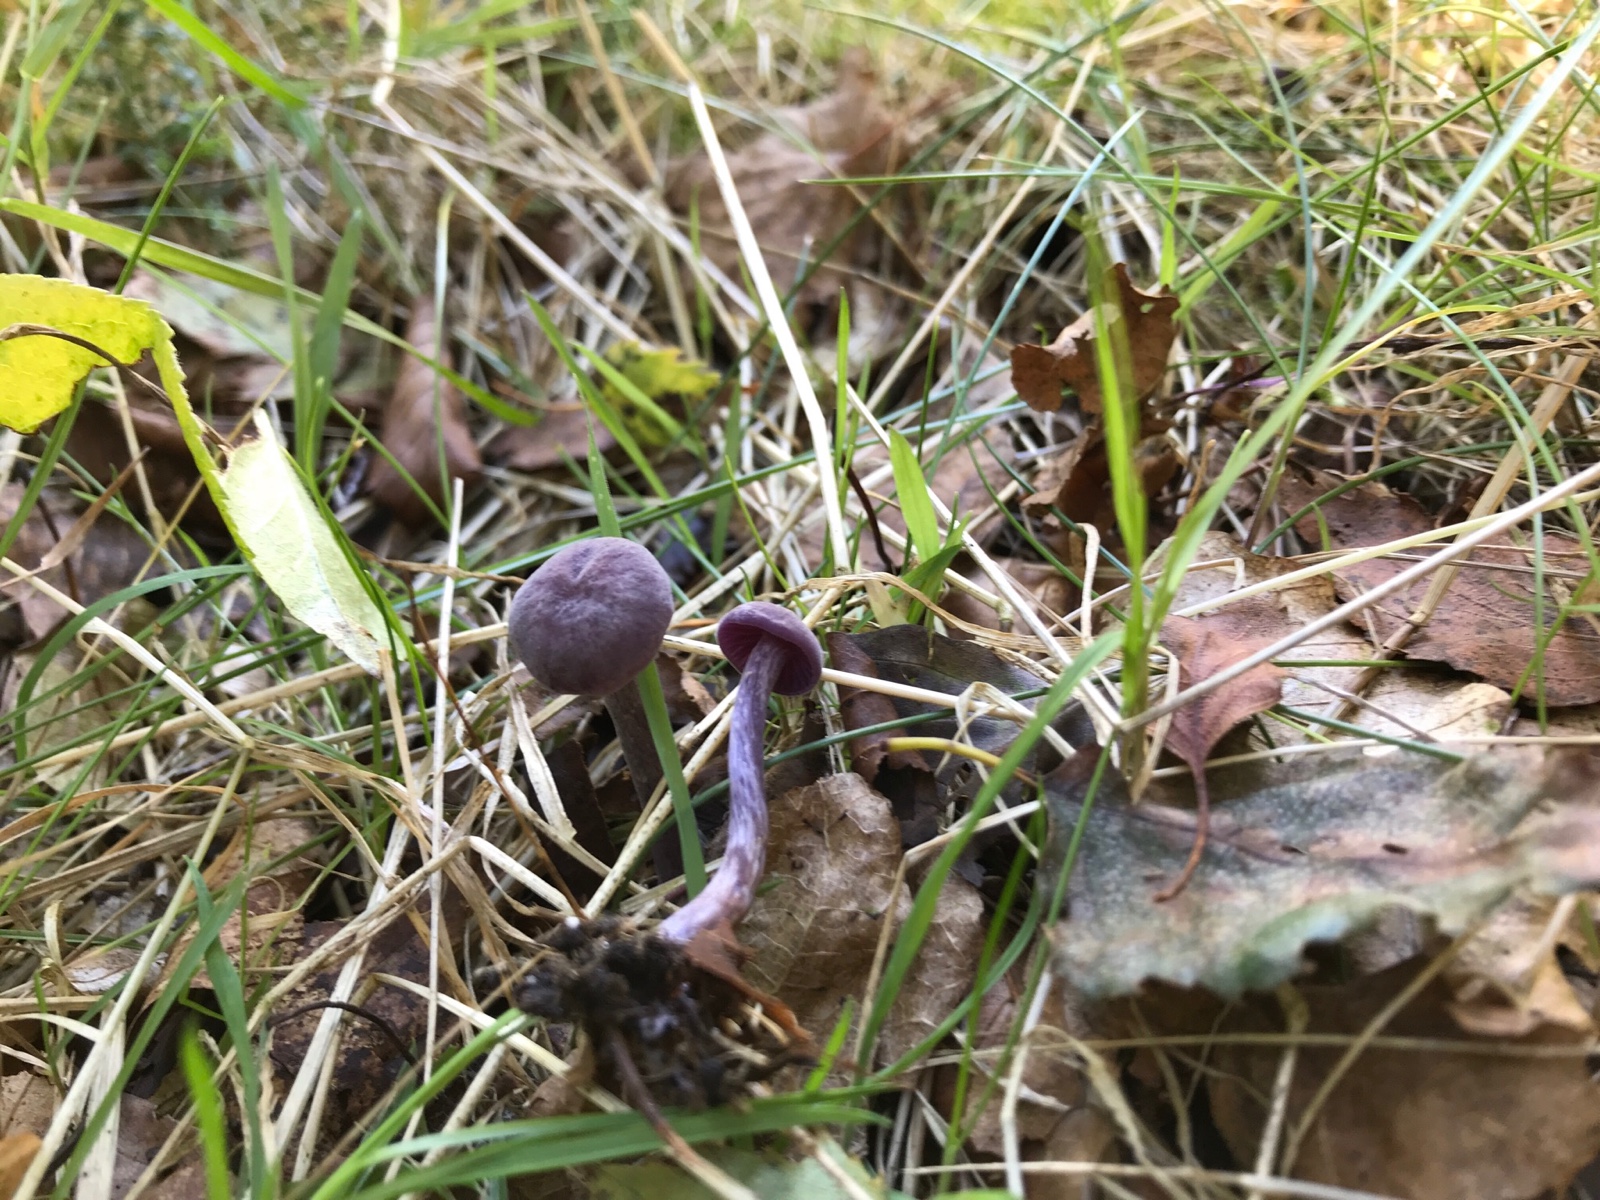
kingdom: Fungi
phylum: Basidiomycota
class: Agaricomycetes
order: Agaricales
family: Hydnangiaceae
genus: Laccaria
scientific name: Laccaria amethystina
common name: violet ametysthat
